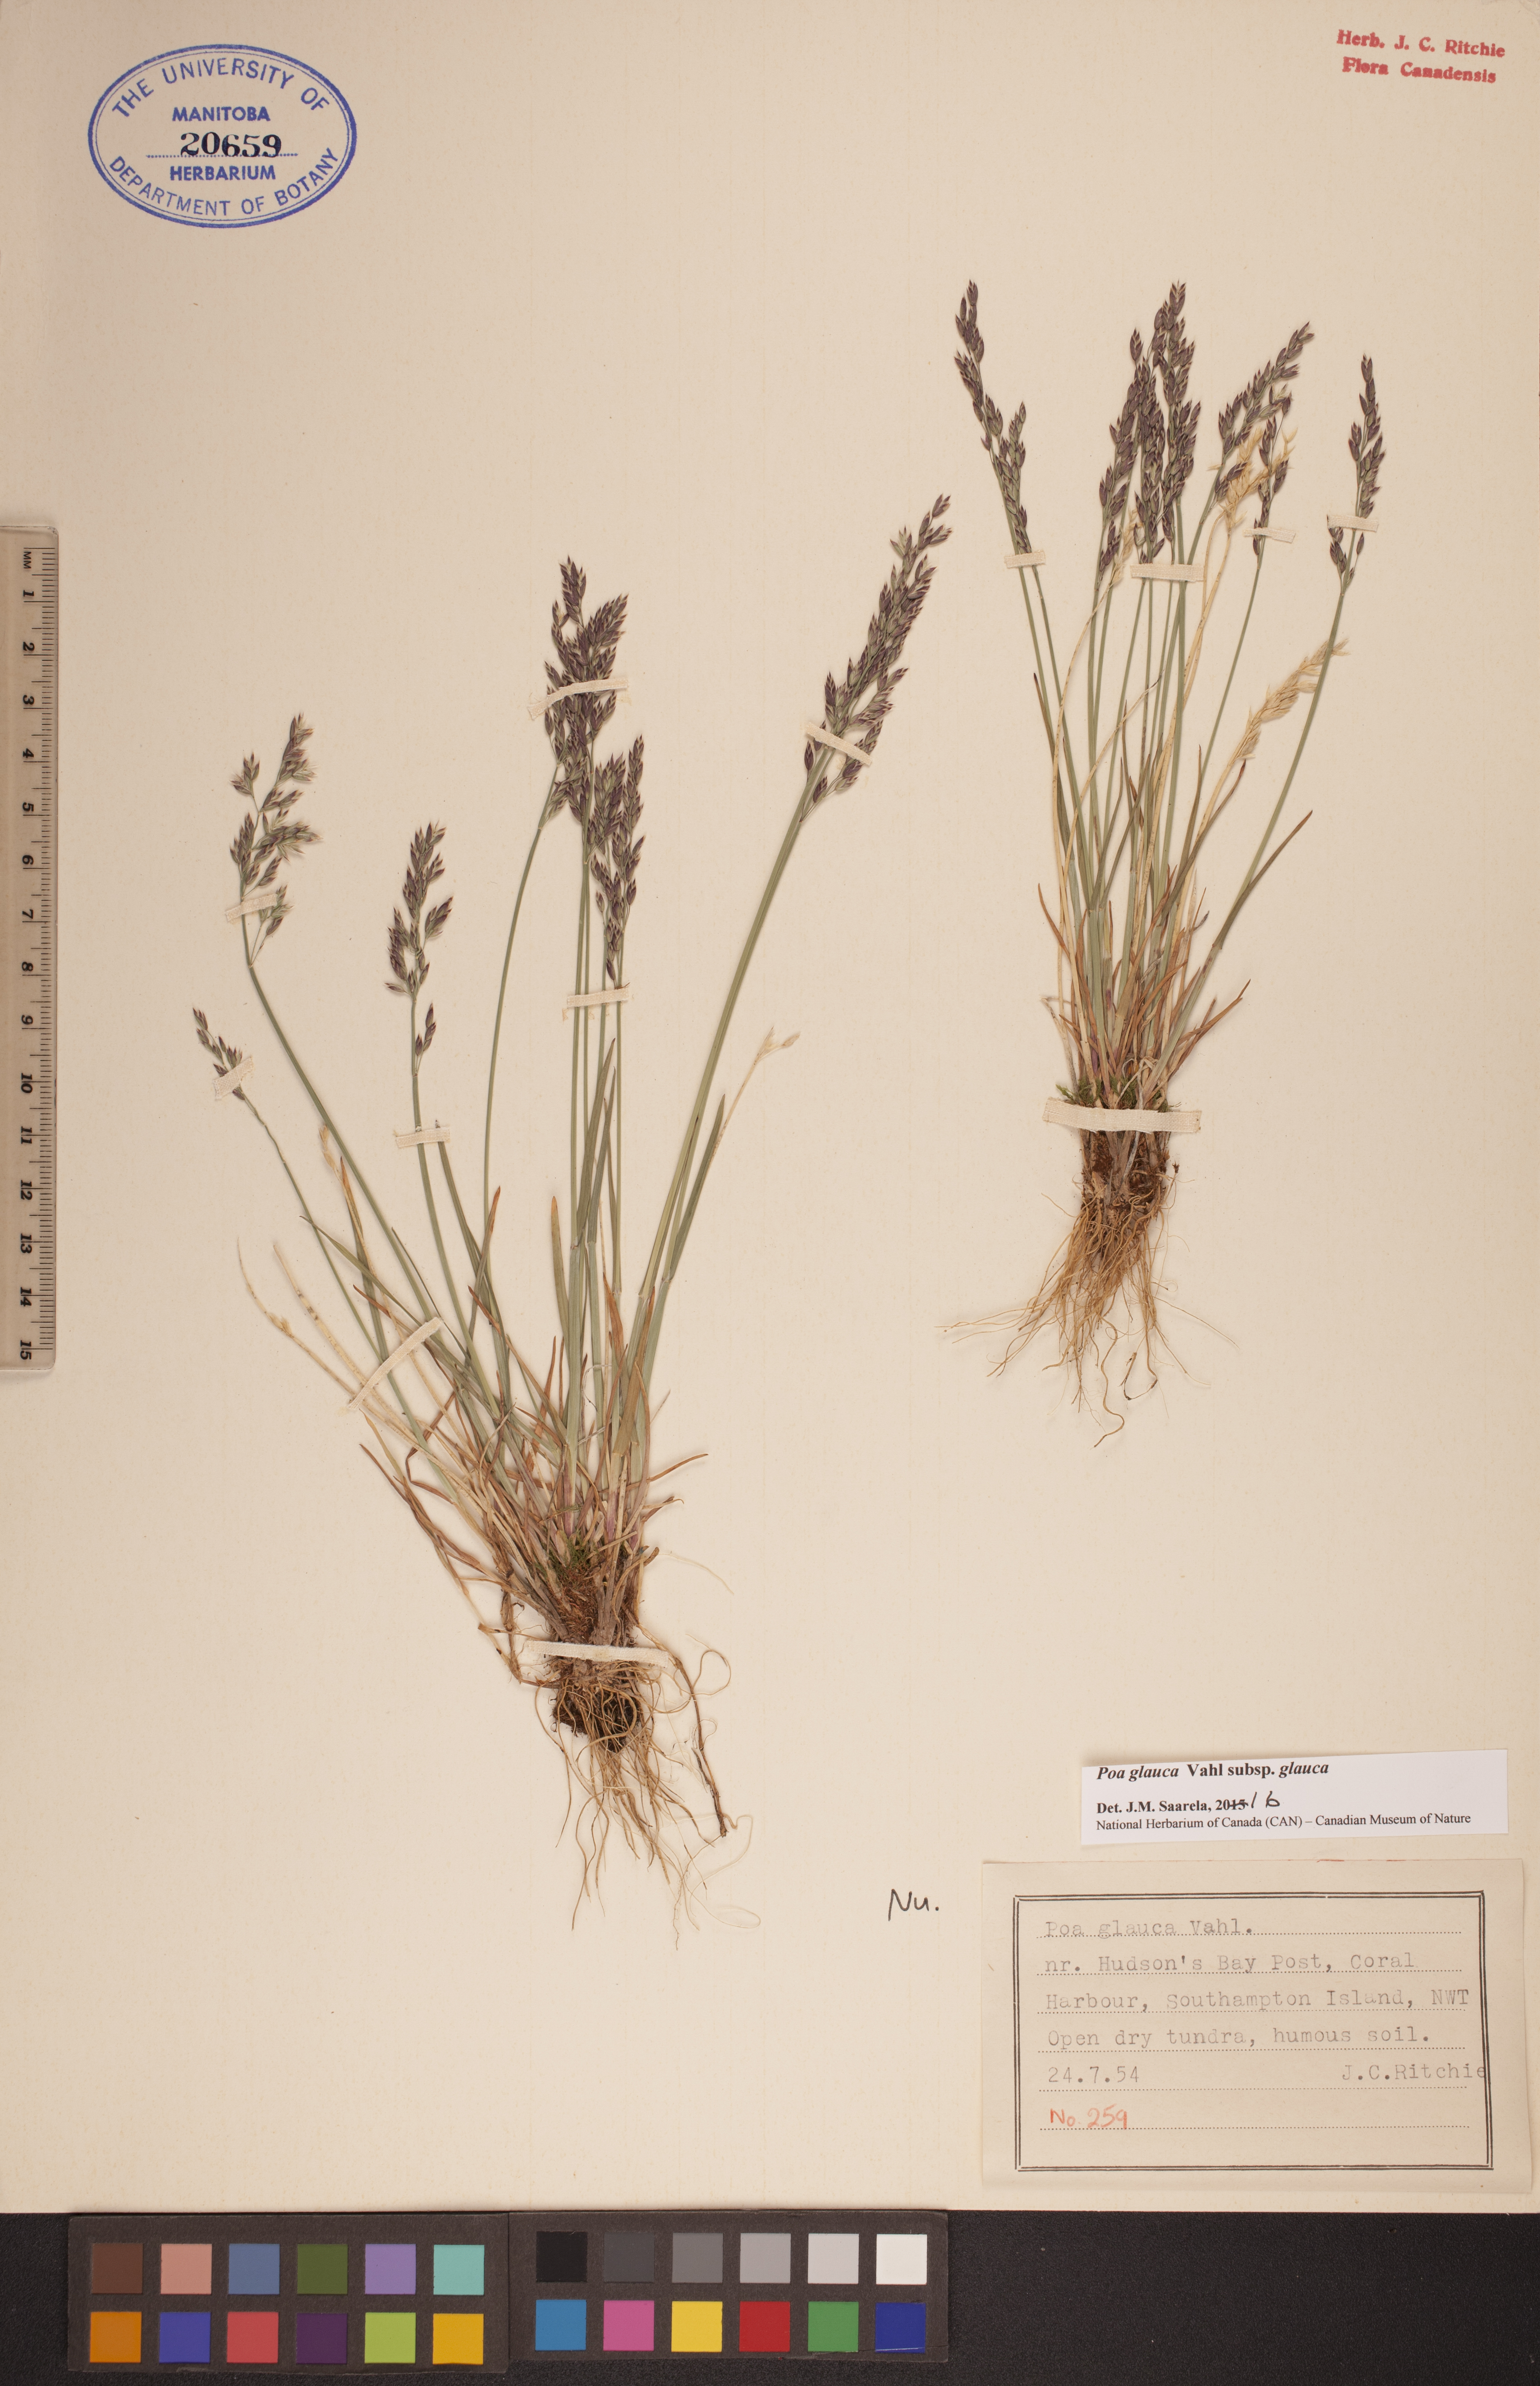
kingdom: Plantae
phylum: Tracheophyta
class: Liliopsida
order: Poales
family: Poaceae
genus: Poa
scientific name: Poa glauca
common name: Glaucous bluegrass
